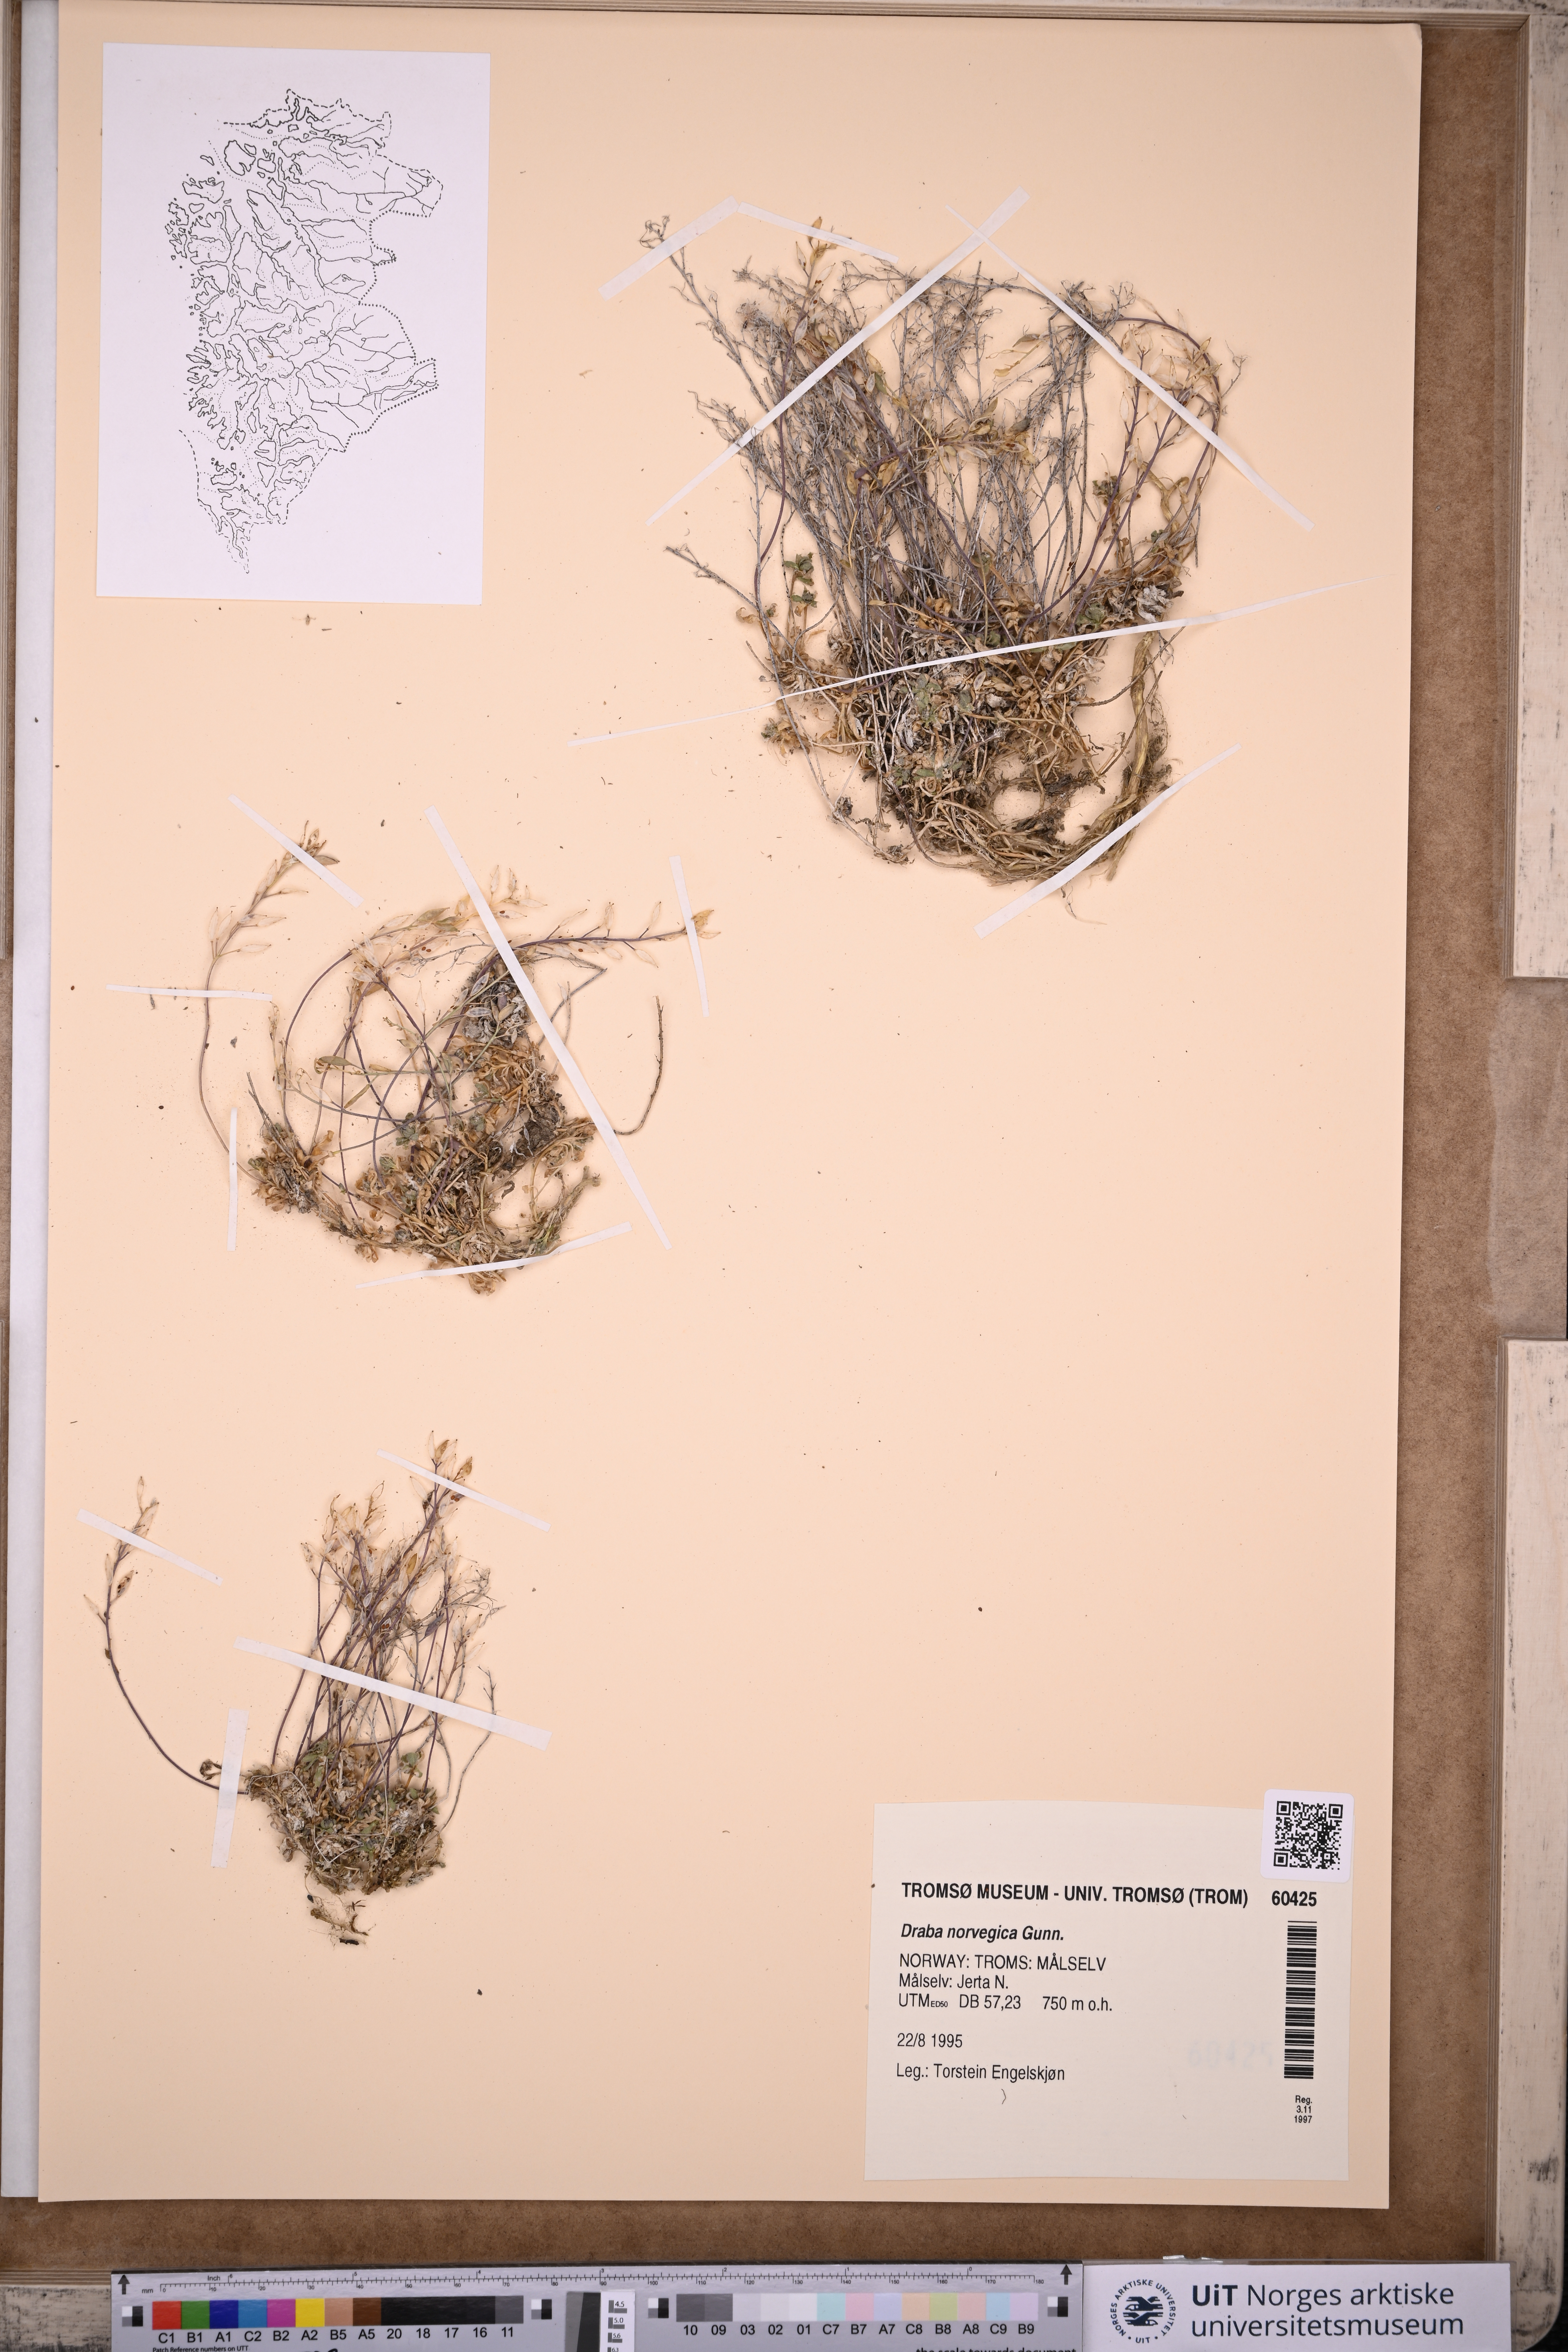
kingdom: Plantae
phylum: Tracheophyta
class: Magnoliopsida
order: Brassicales
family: Brassicaceae
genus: Draba
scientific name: Draba norvegica
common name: Rock whitlowgrass
